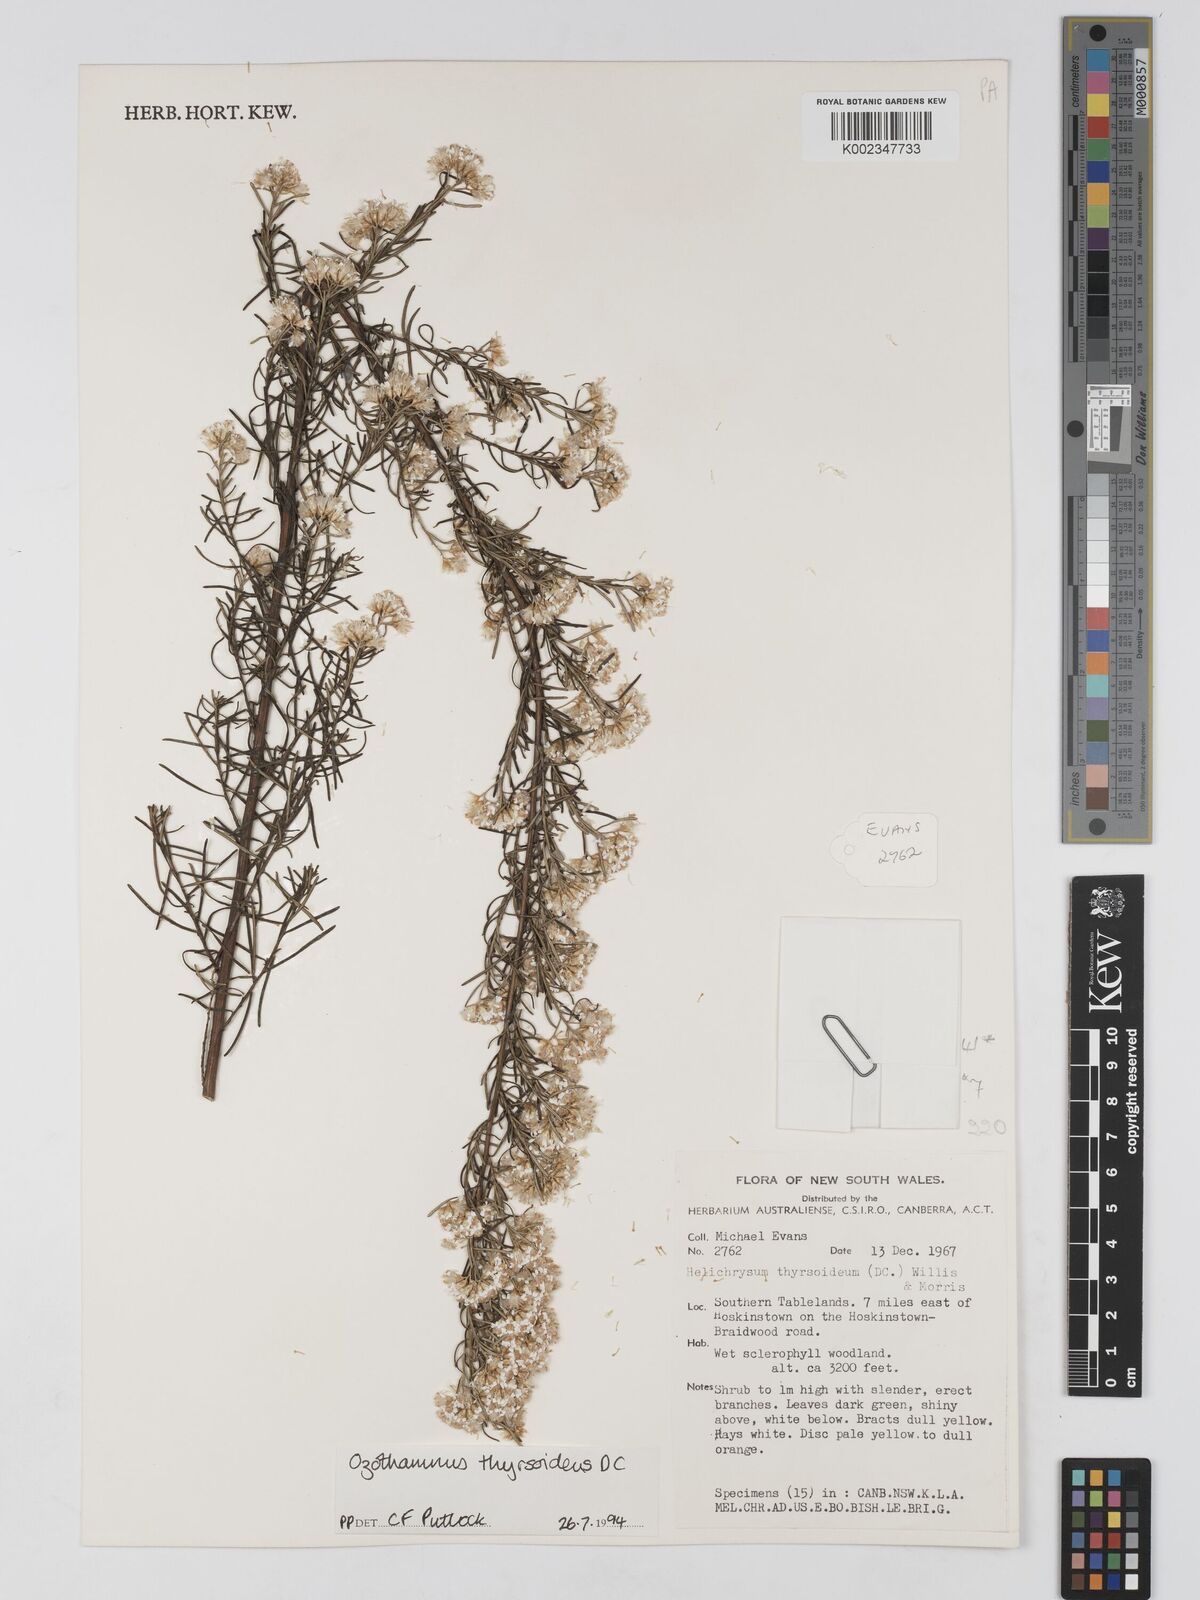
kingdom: Plantae
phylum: Tracheophyta
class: Magnoliopsida
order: Asterales
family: Asteraceae
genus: Ozothamnus
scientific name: Ozothamnus thyrsoideus
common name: Snow-in-summer
